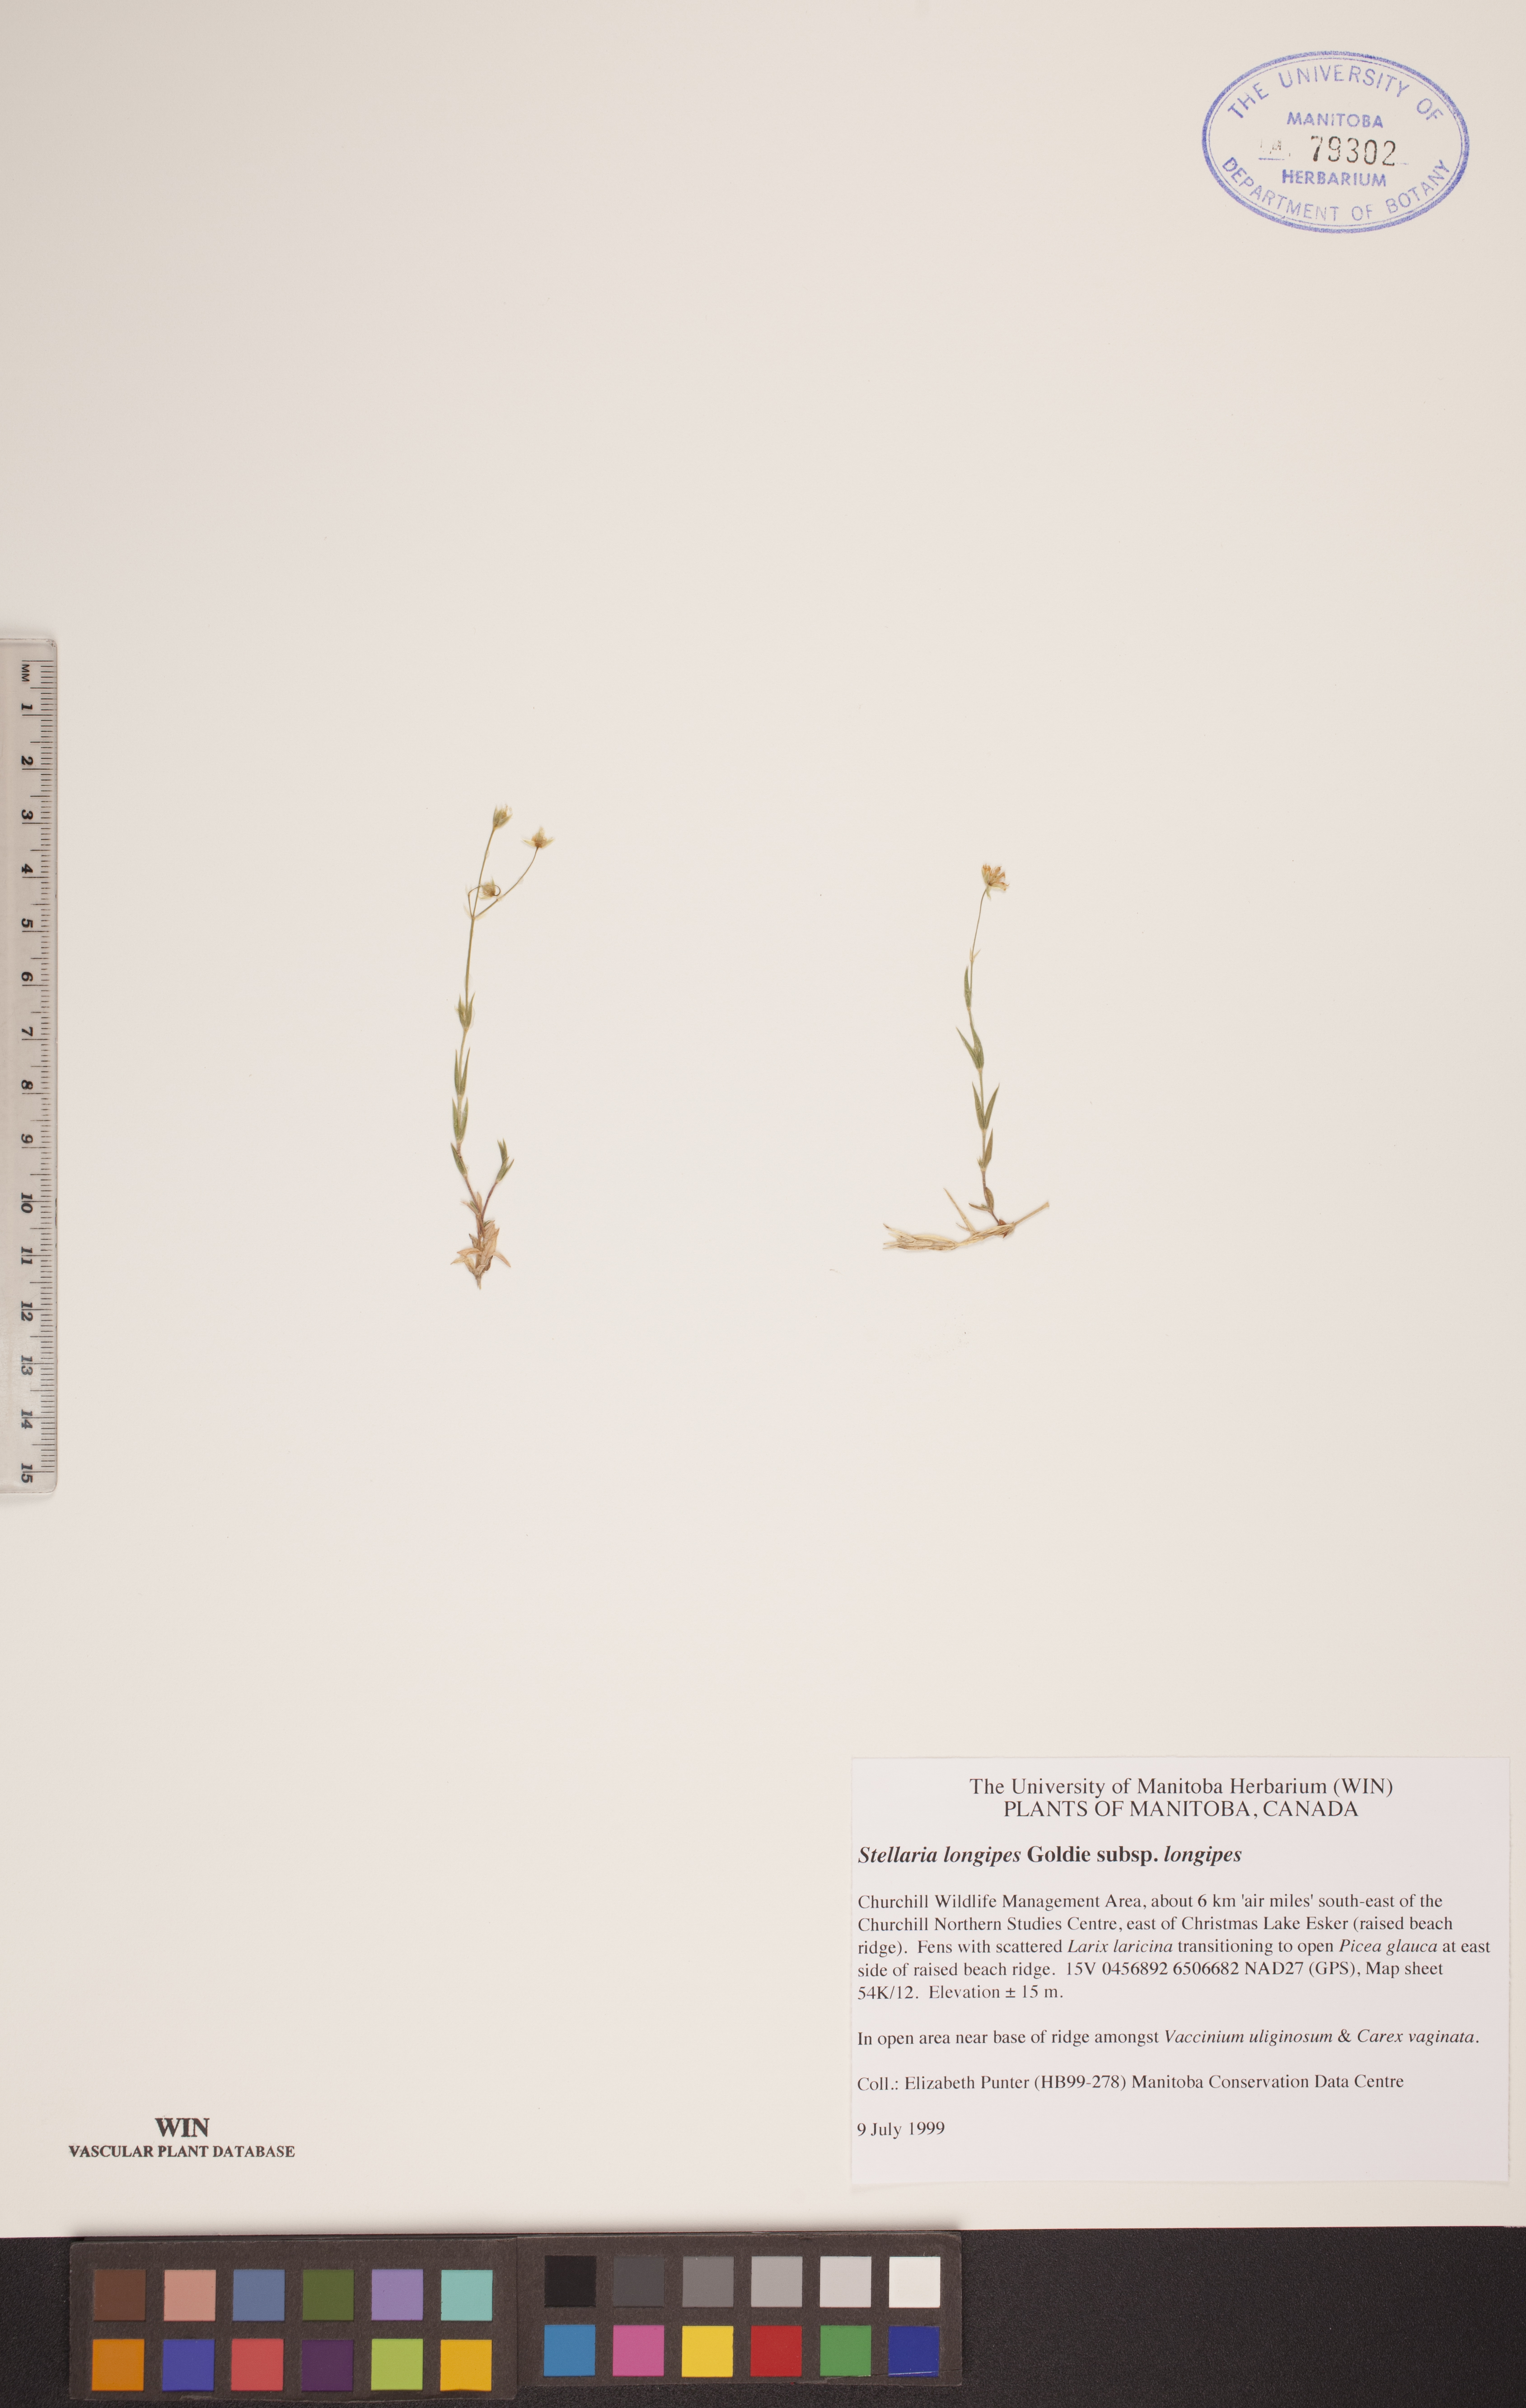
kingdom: Plantae
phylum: Tracheophyta
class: Magnoliopsida
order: Caryophyllales
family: Caryophyllaceae
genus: Stellaria
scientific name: Stellaria longipes
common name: Goldie's starwort
